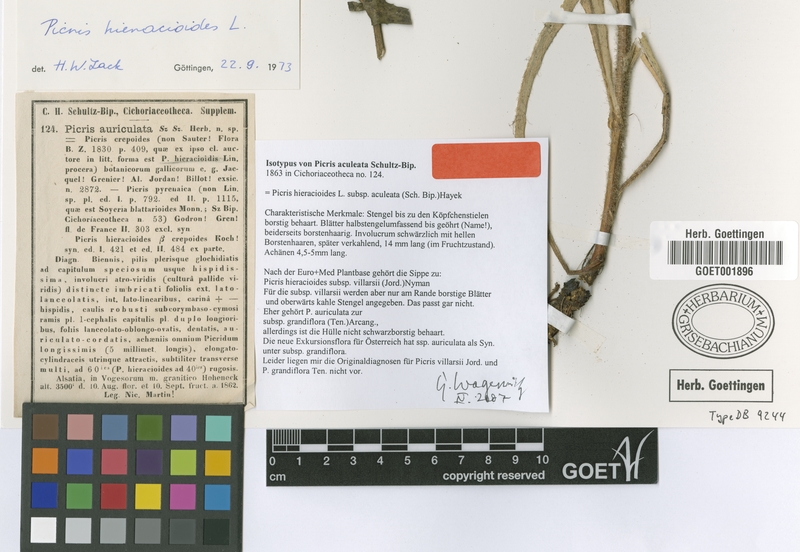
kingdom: Plantae
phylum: Tracheophyta
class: Magnoliopsida
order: Asterales
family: Asteraceae
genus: Picris
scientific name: Picris hieracioides
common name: Hawkweed oxtongue
